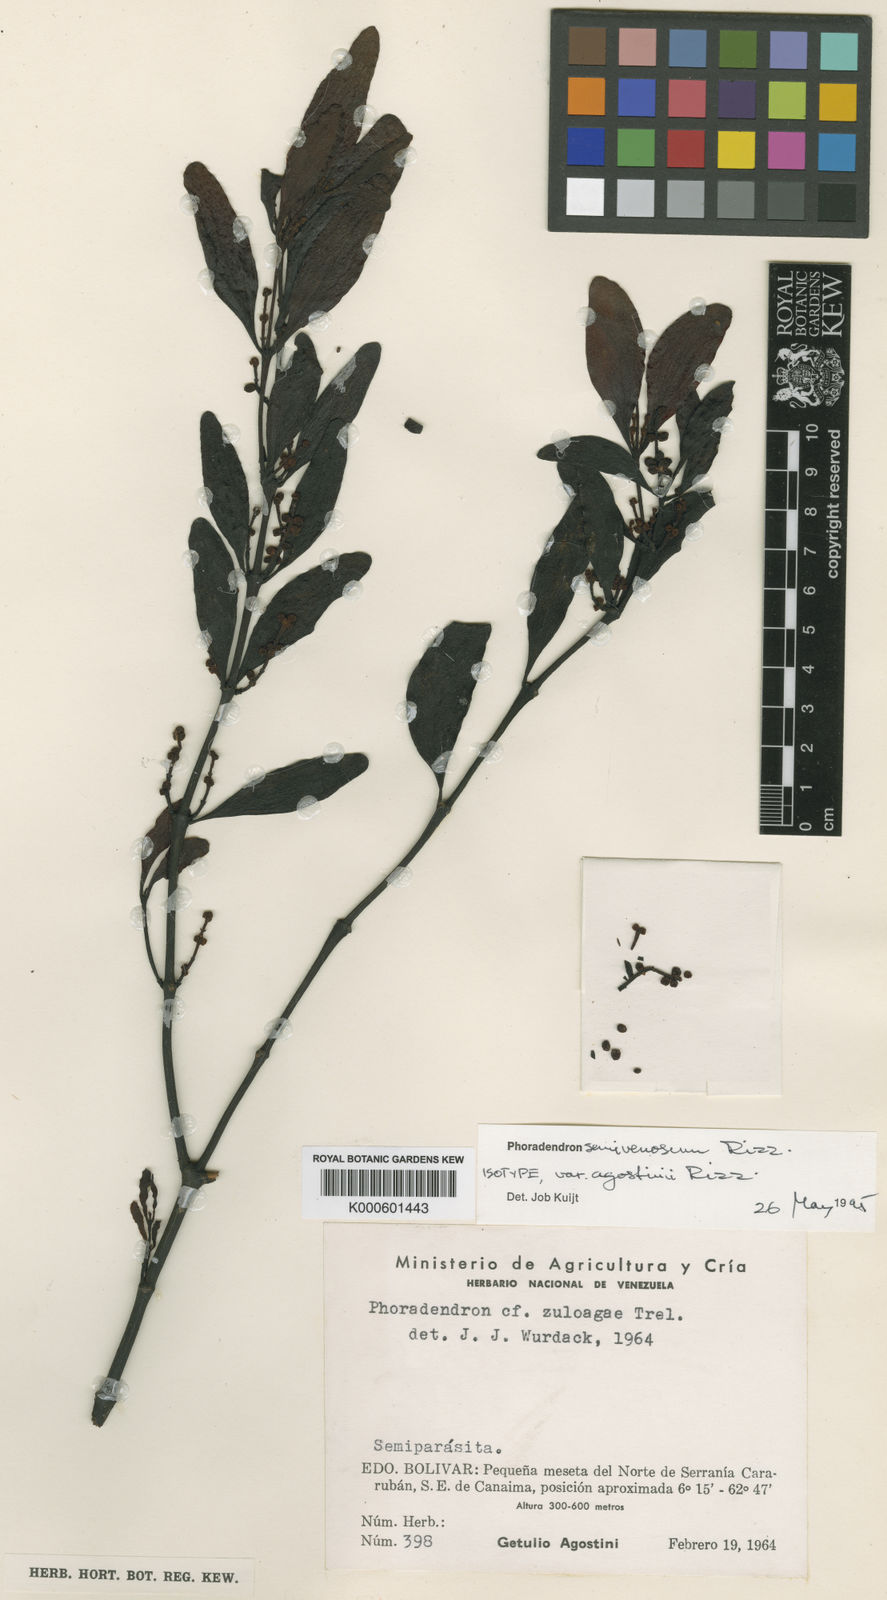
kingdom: Plantae
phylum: Tracheophyta
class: Magnoliopsida
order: Santalales
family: Viscaceae
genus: Phoradendron
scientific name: Phoradendron pellucidulum
